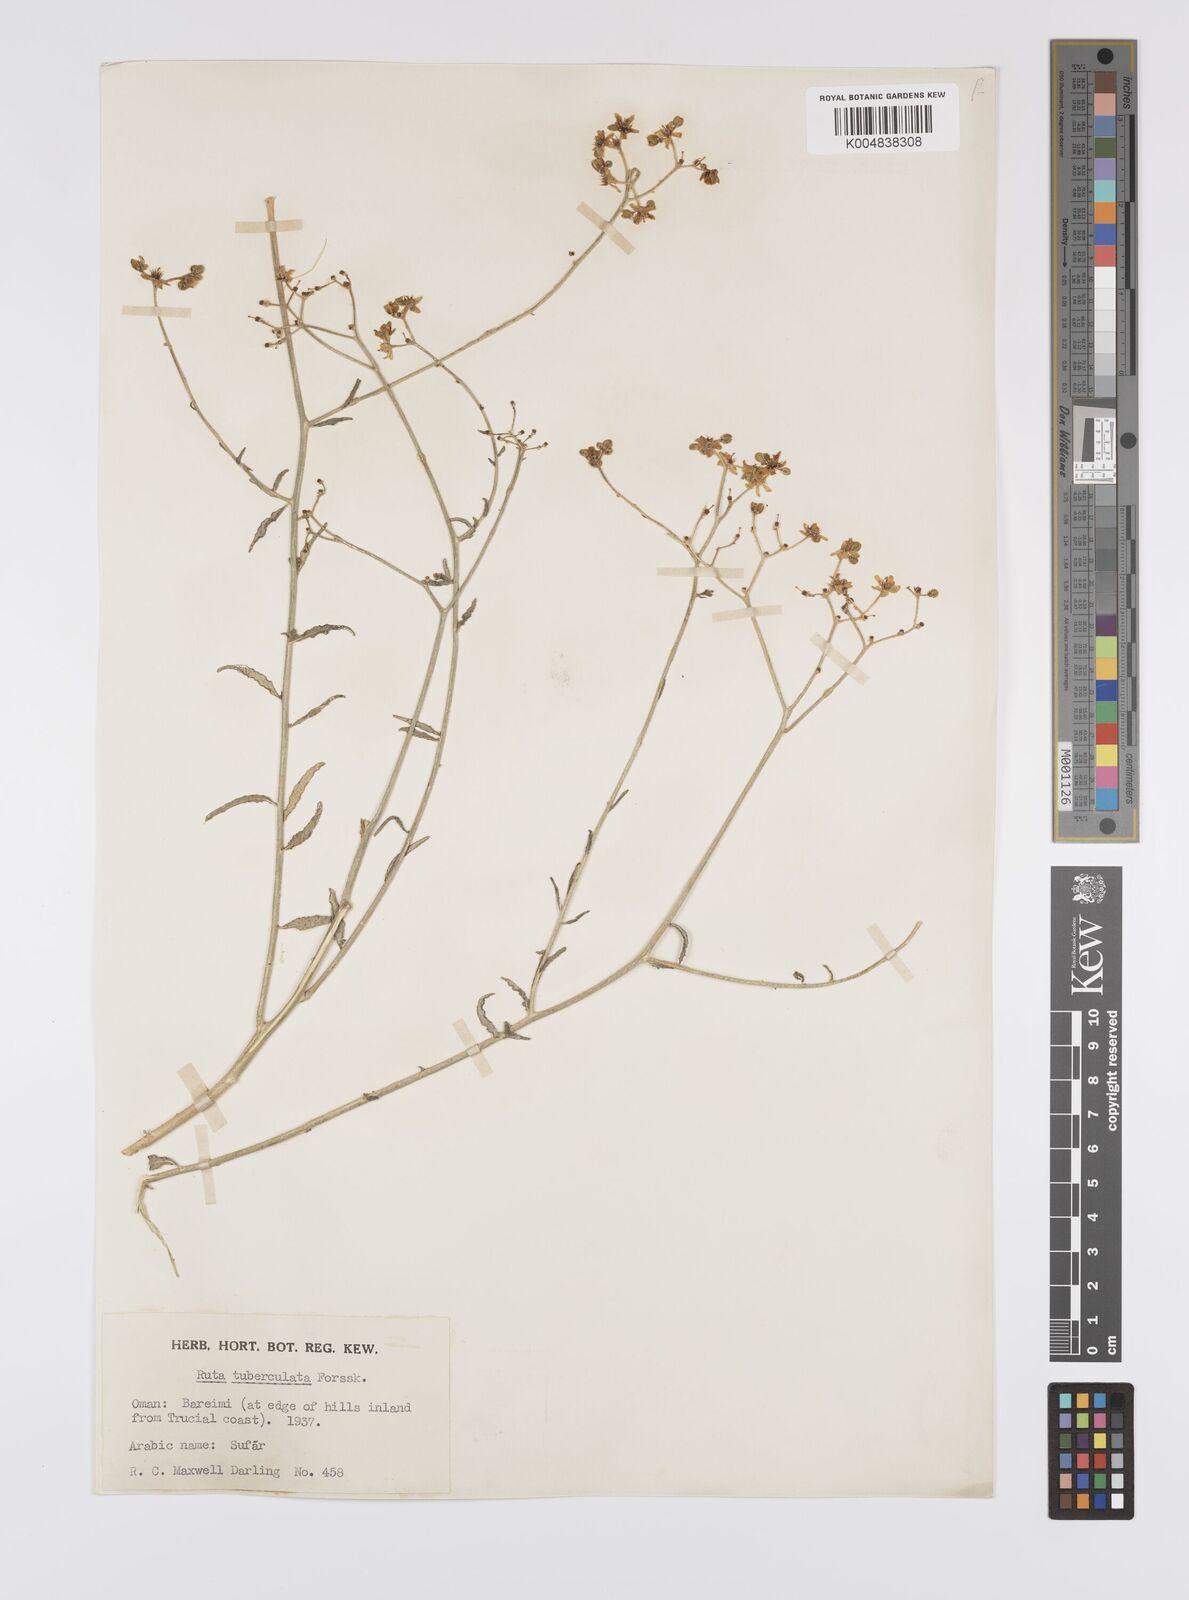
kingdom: Plantae
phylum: Tracheophyta
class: Magnoliopsida
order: Sapindales
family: Rutaceae
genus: Haplophyllum
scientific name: Haplophyllum tuberculatum
